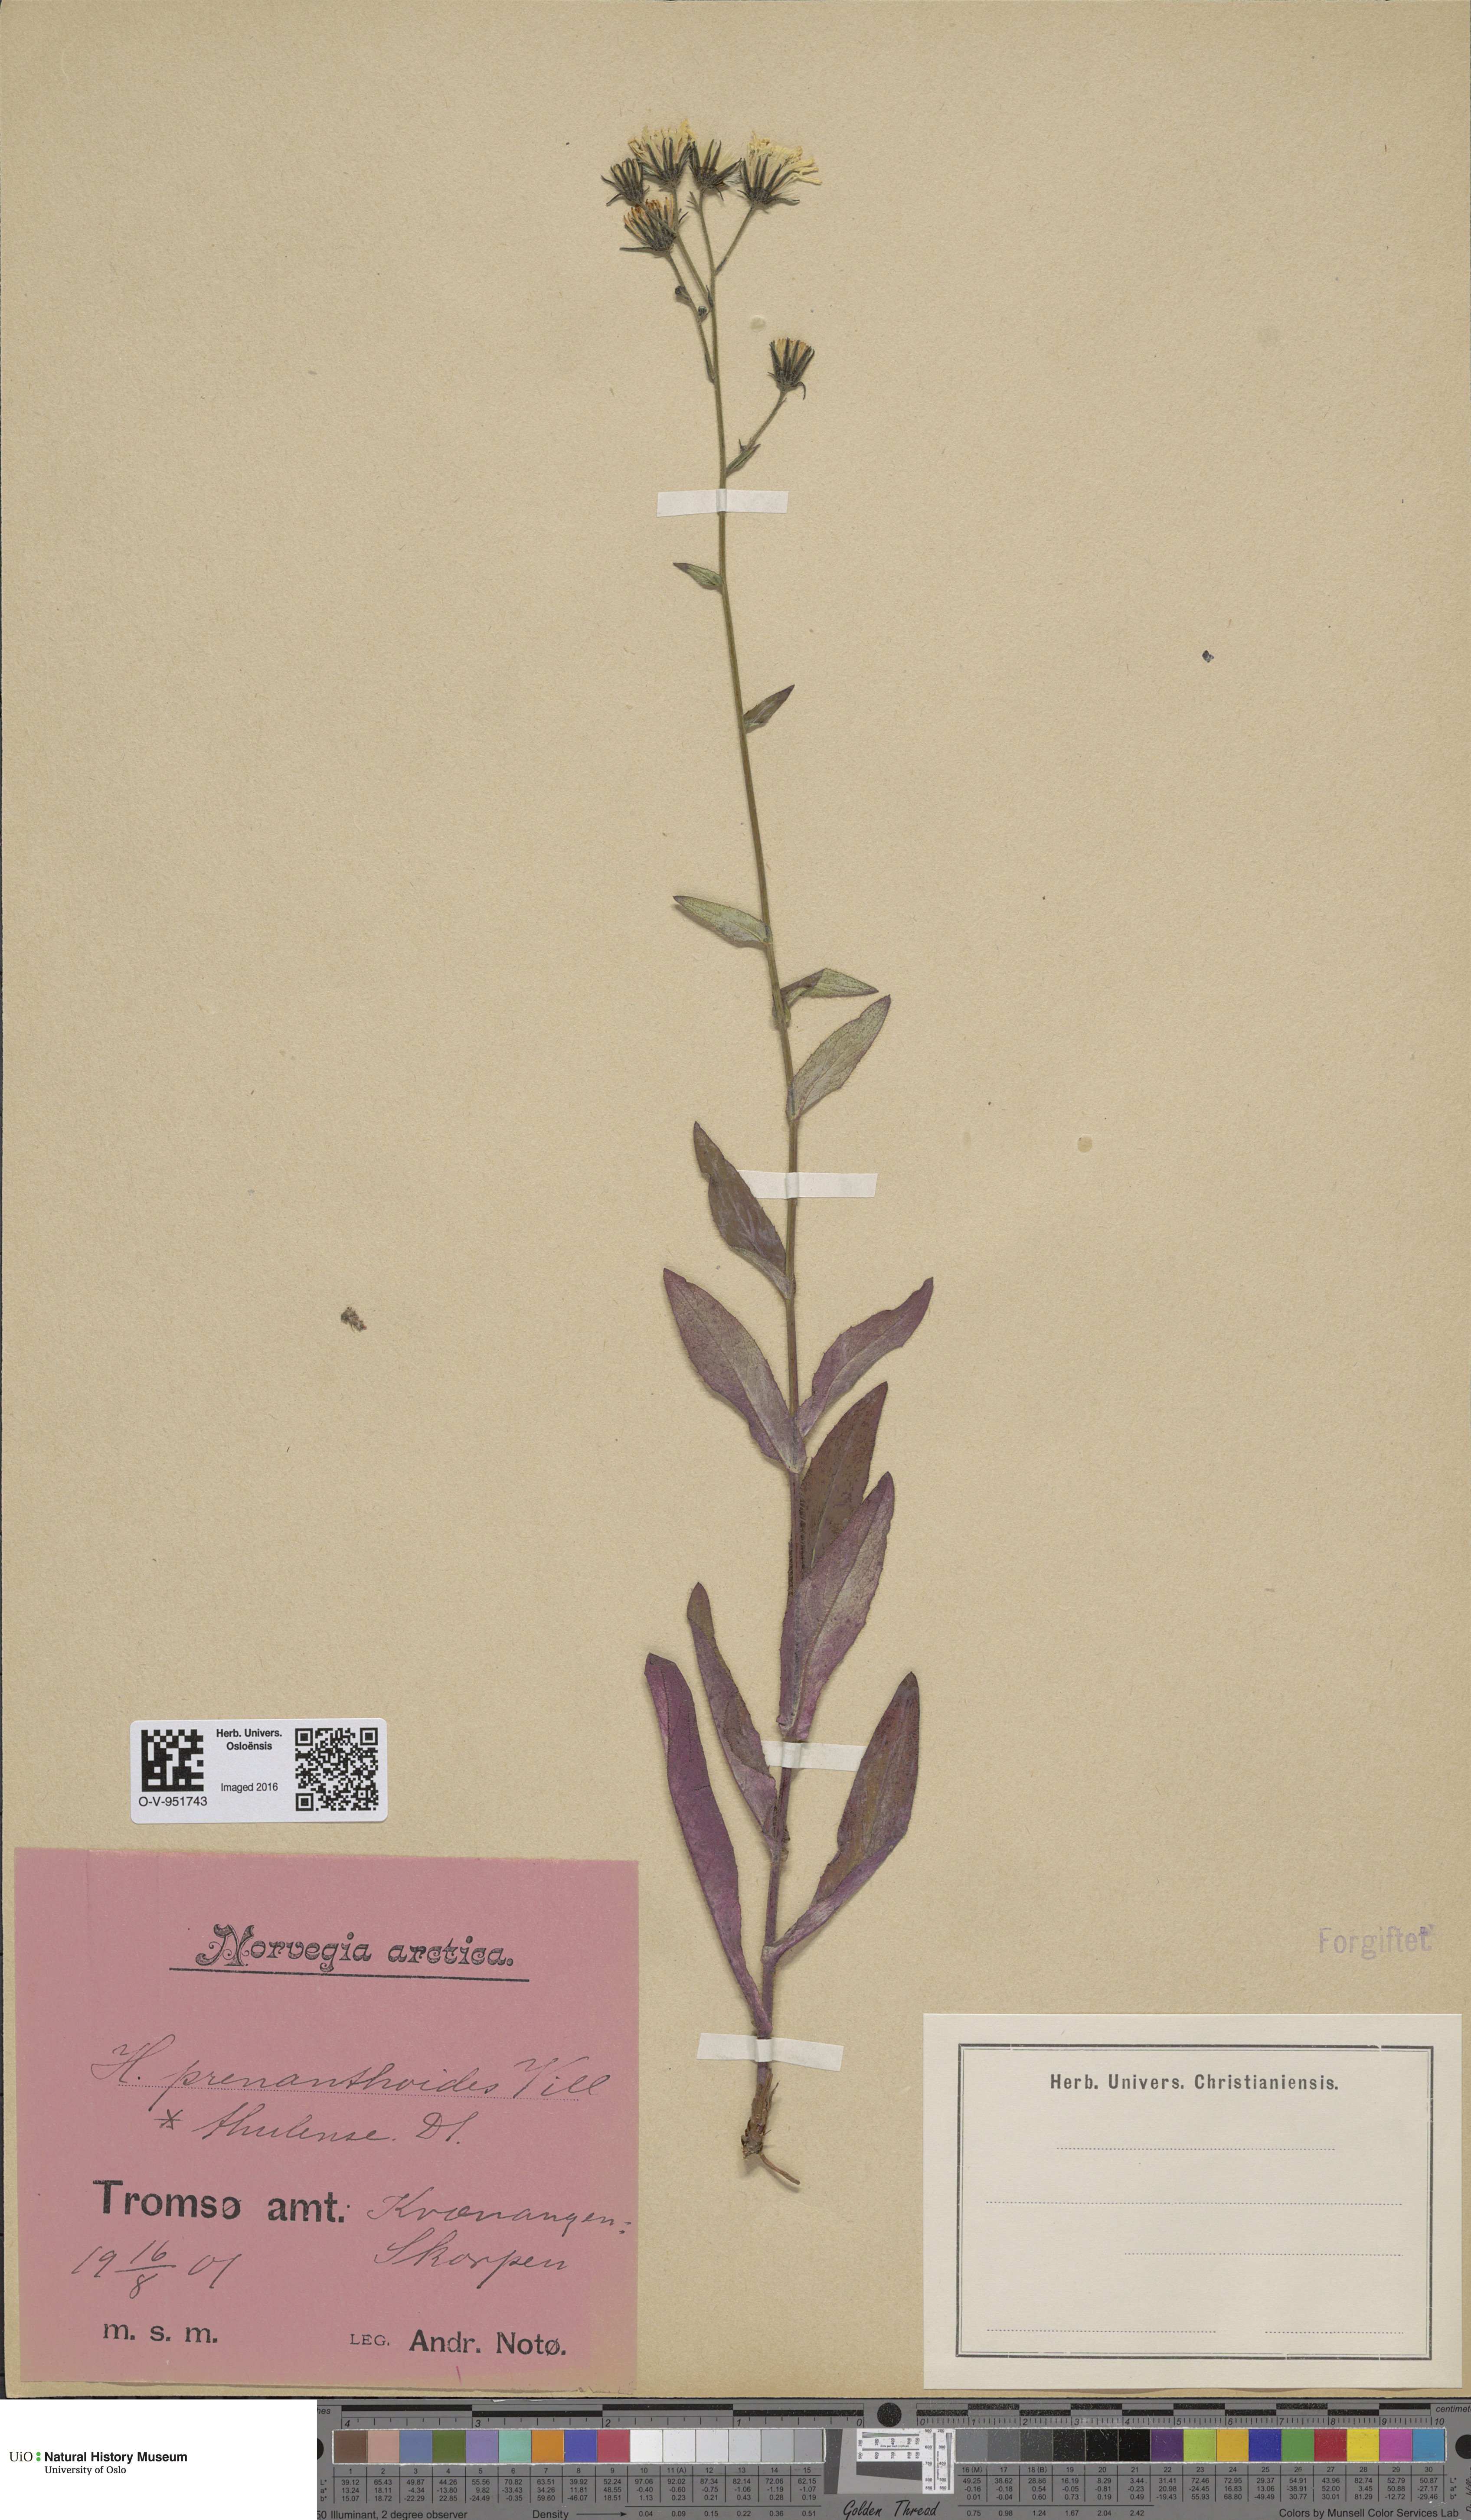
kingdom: Plantae
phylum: Tracheophyta
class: Magnoliopsida
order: Asterales
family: Asteraceae
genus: Hieracium
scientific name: Hieracium prenanthoides
